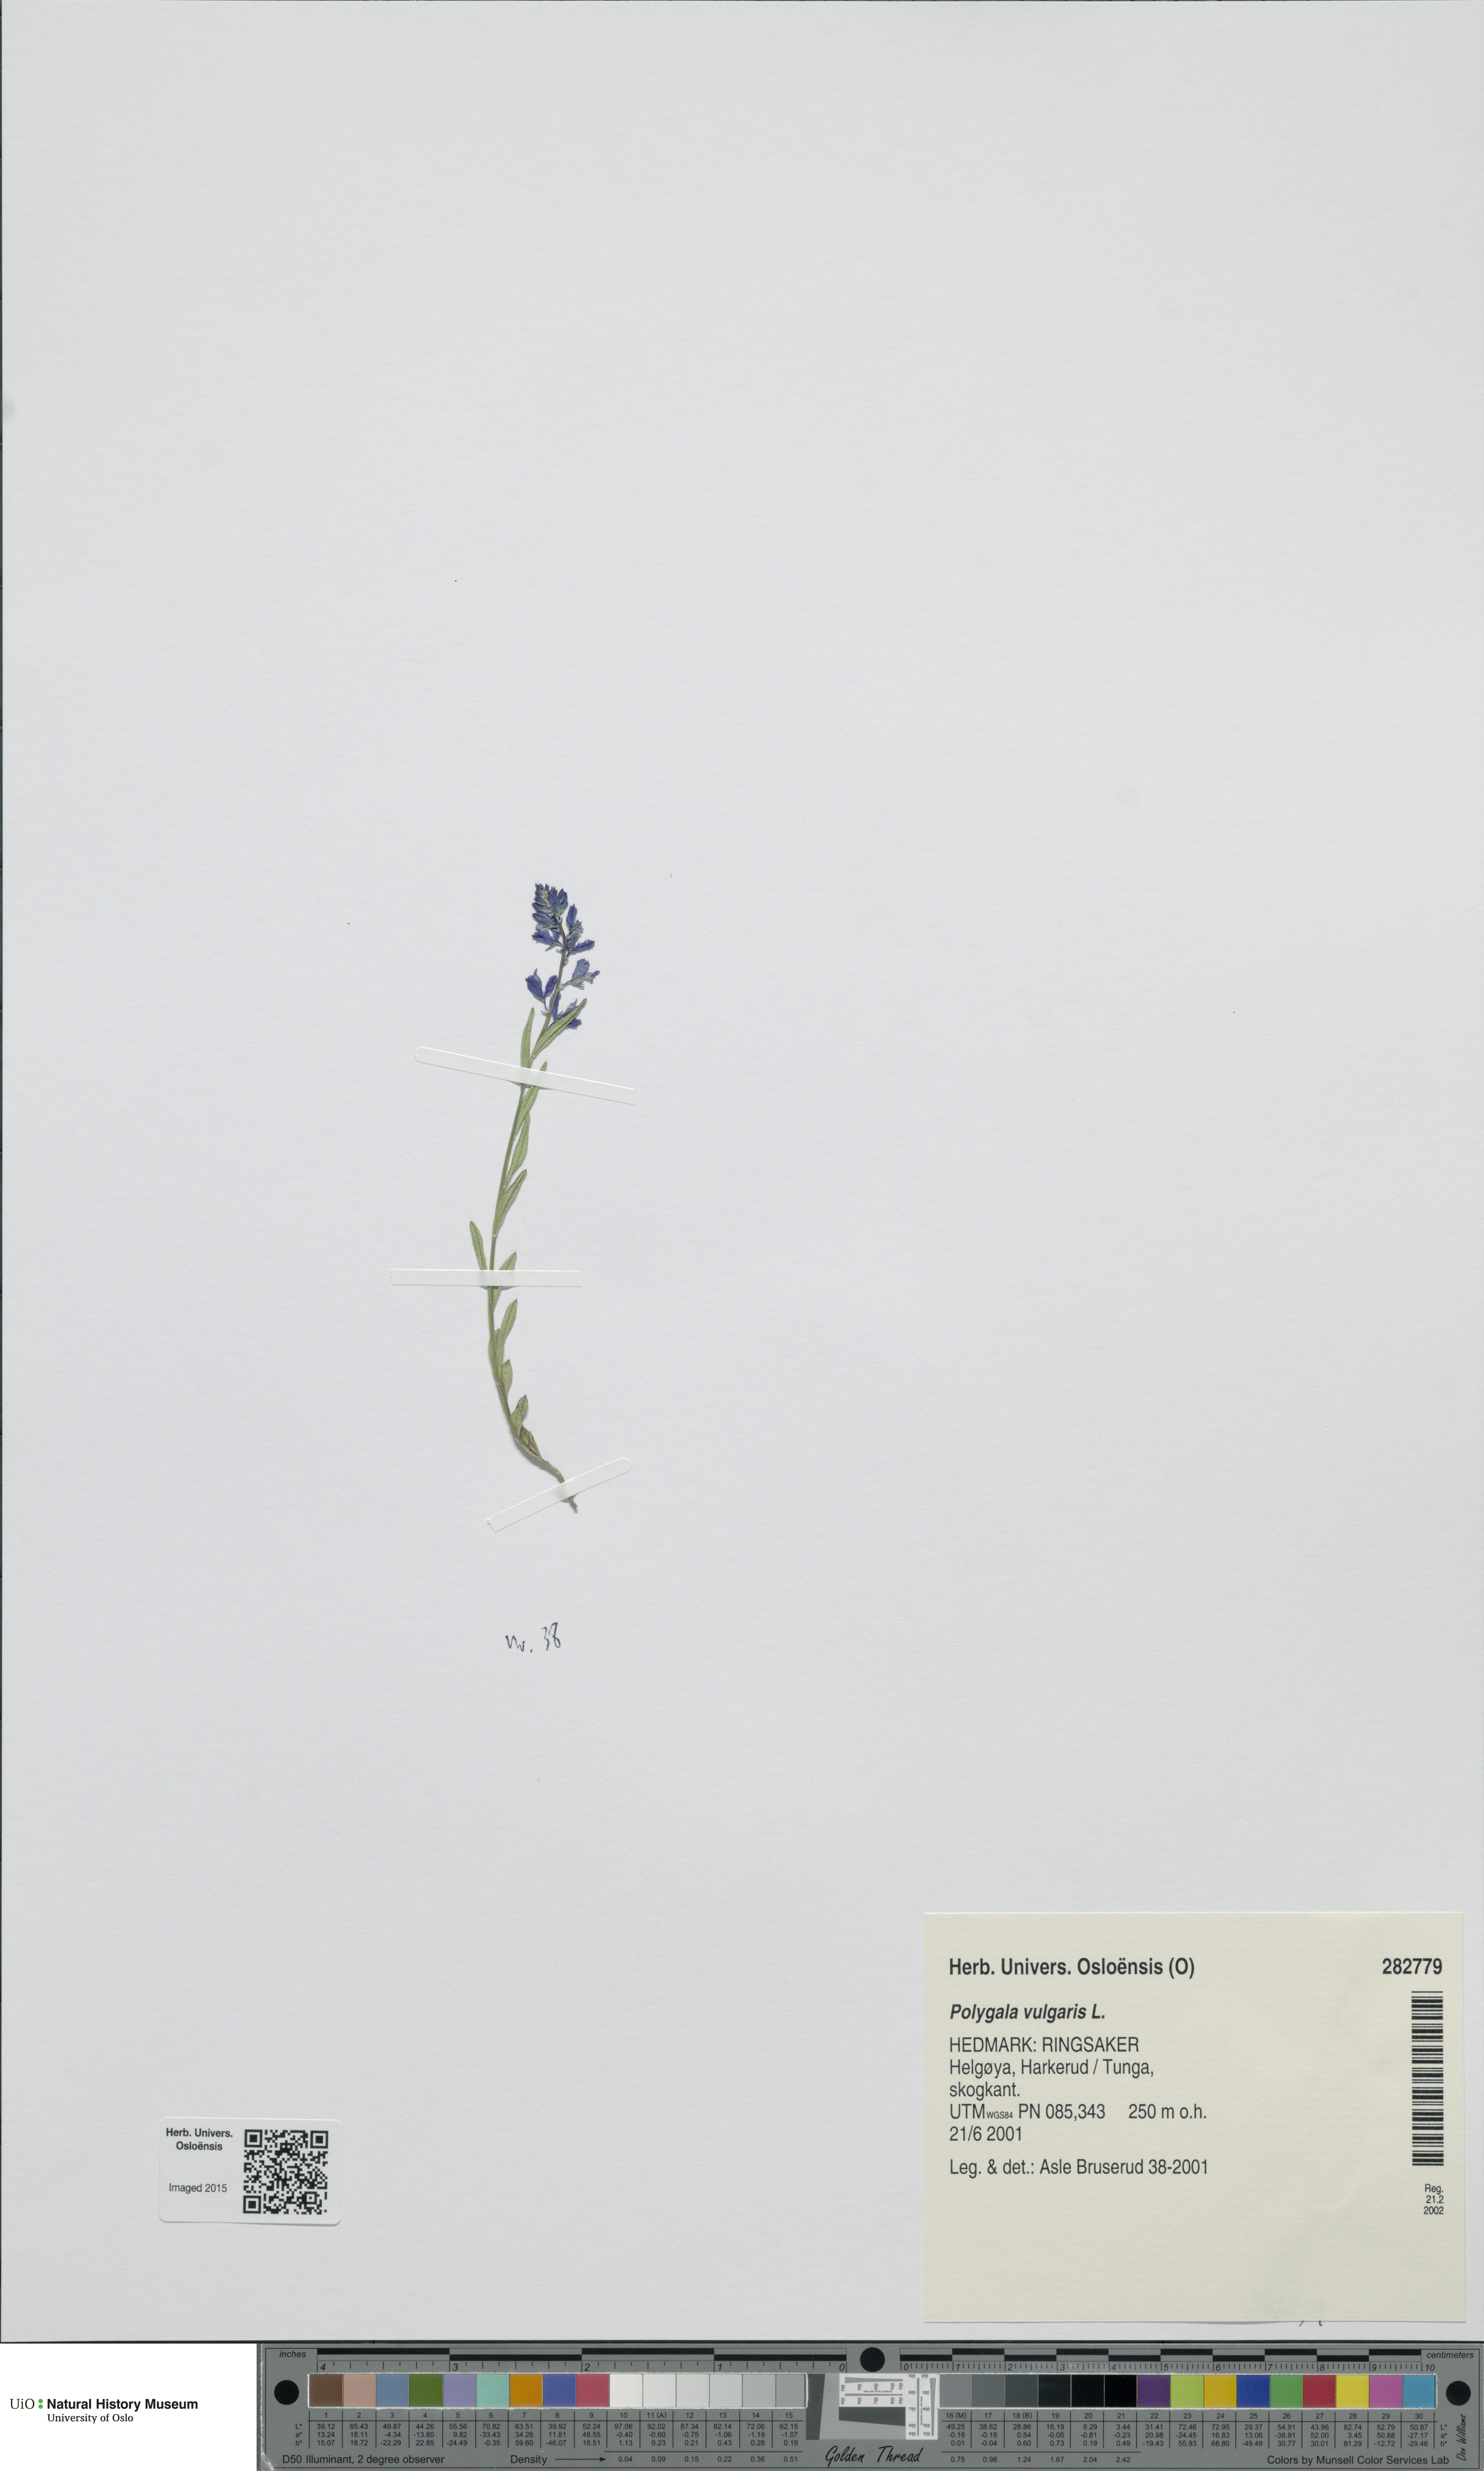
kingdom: Plantae
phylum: Tracheophyta
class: Magnoliopsida
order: Fabales
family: Polygalaceae
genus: Polygala
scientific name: Polygala vulgaris
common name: Common milkwort
